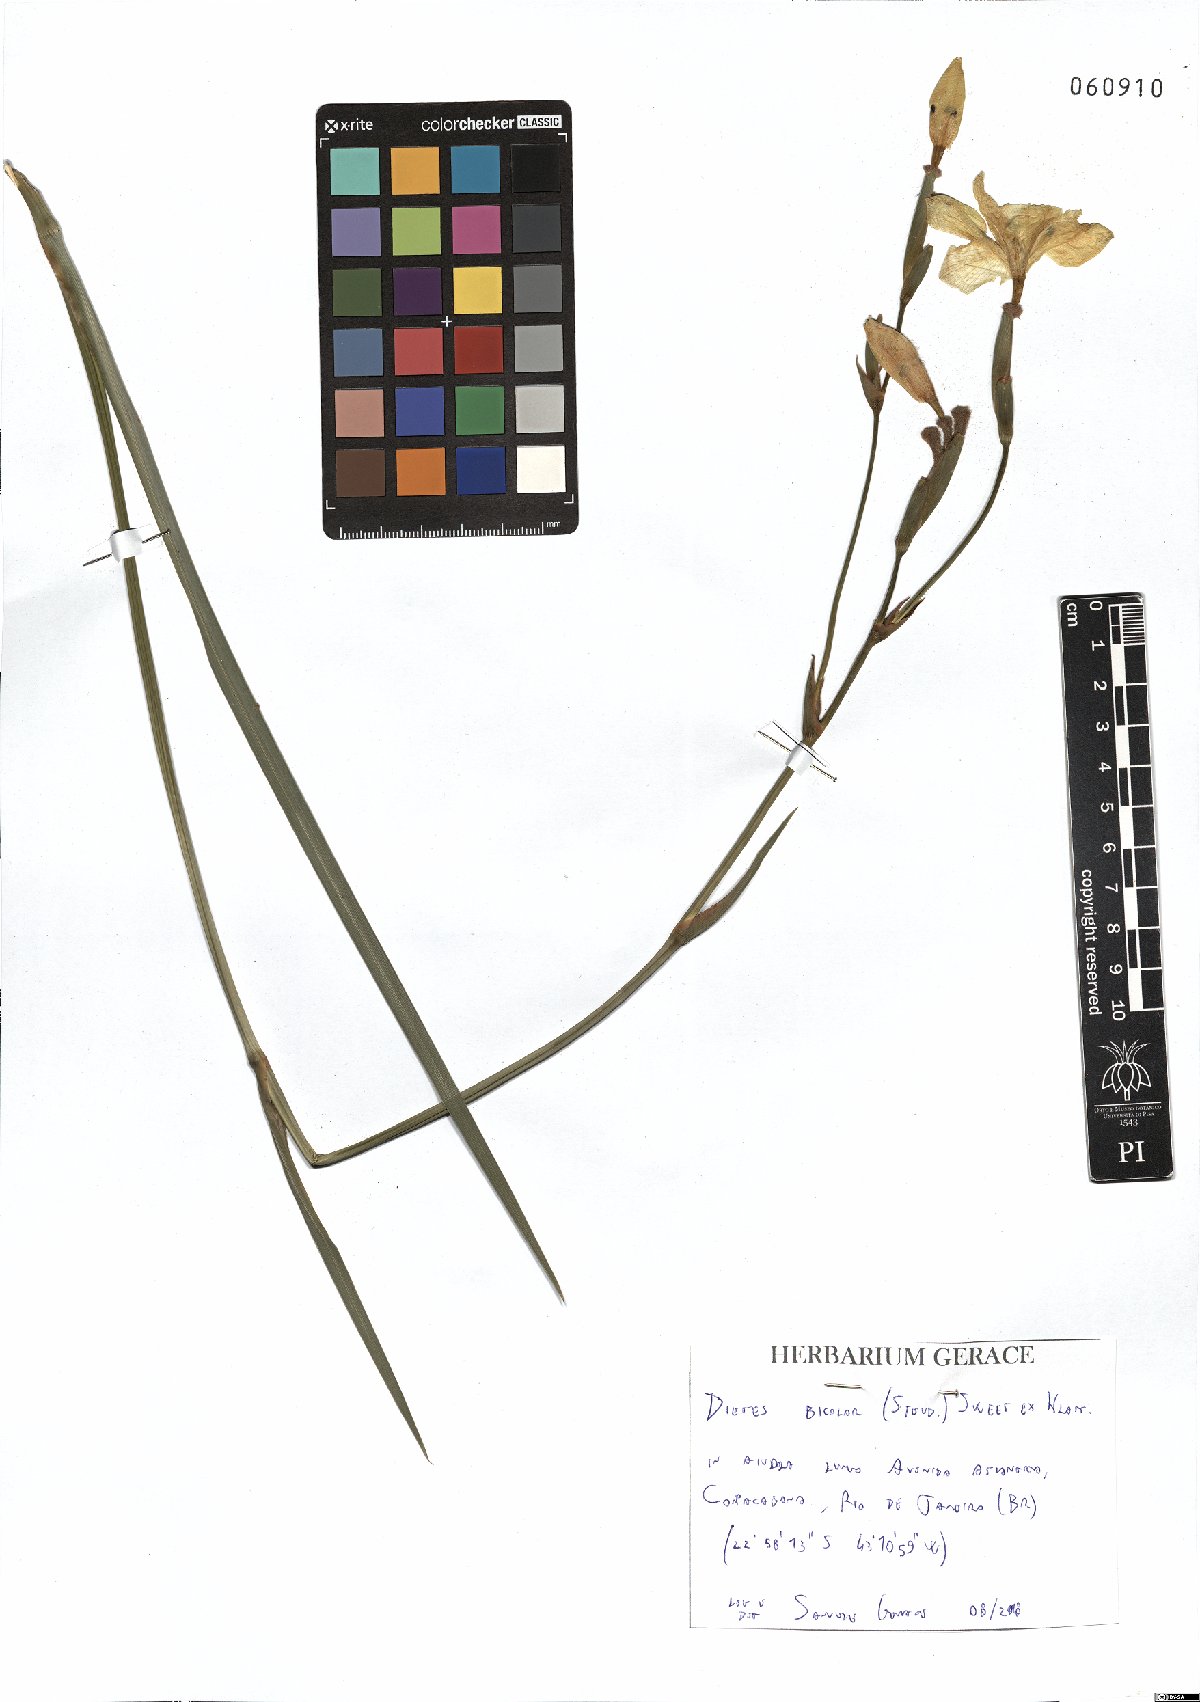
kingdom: Plantae
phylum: Tracheophyta
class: Liliopsida
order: Asparagales
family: Iridaceae
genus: Dietes
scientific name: Dietes bicolor
